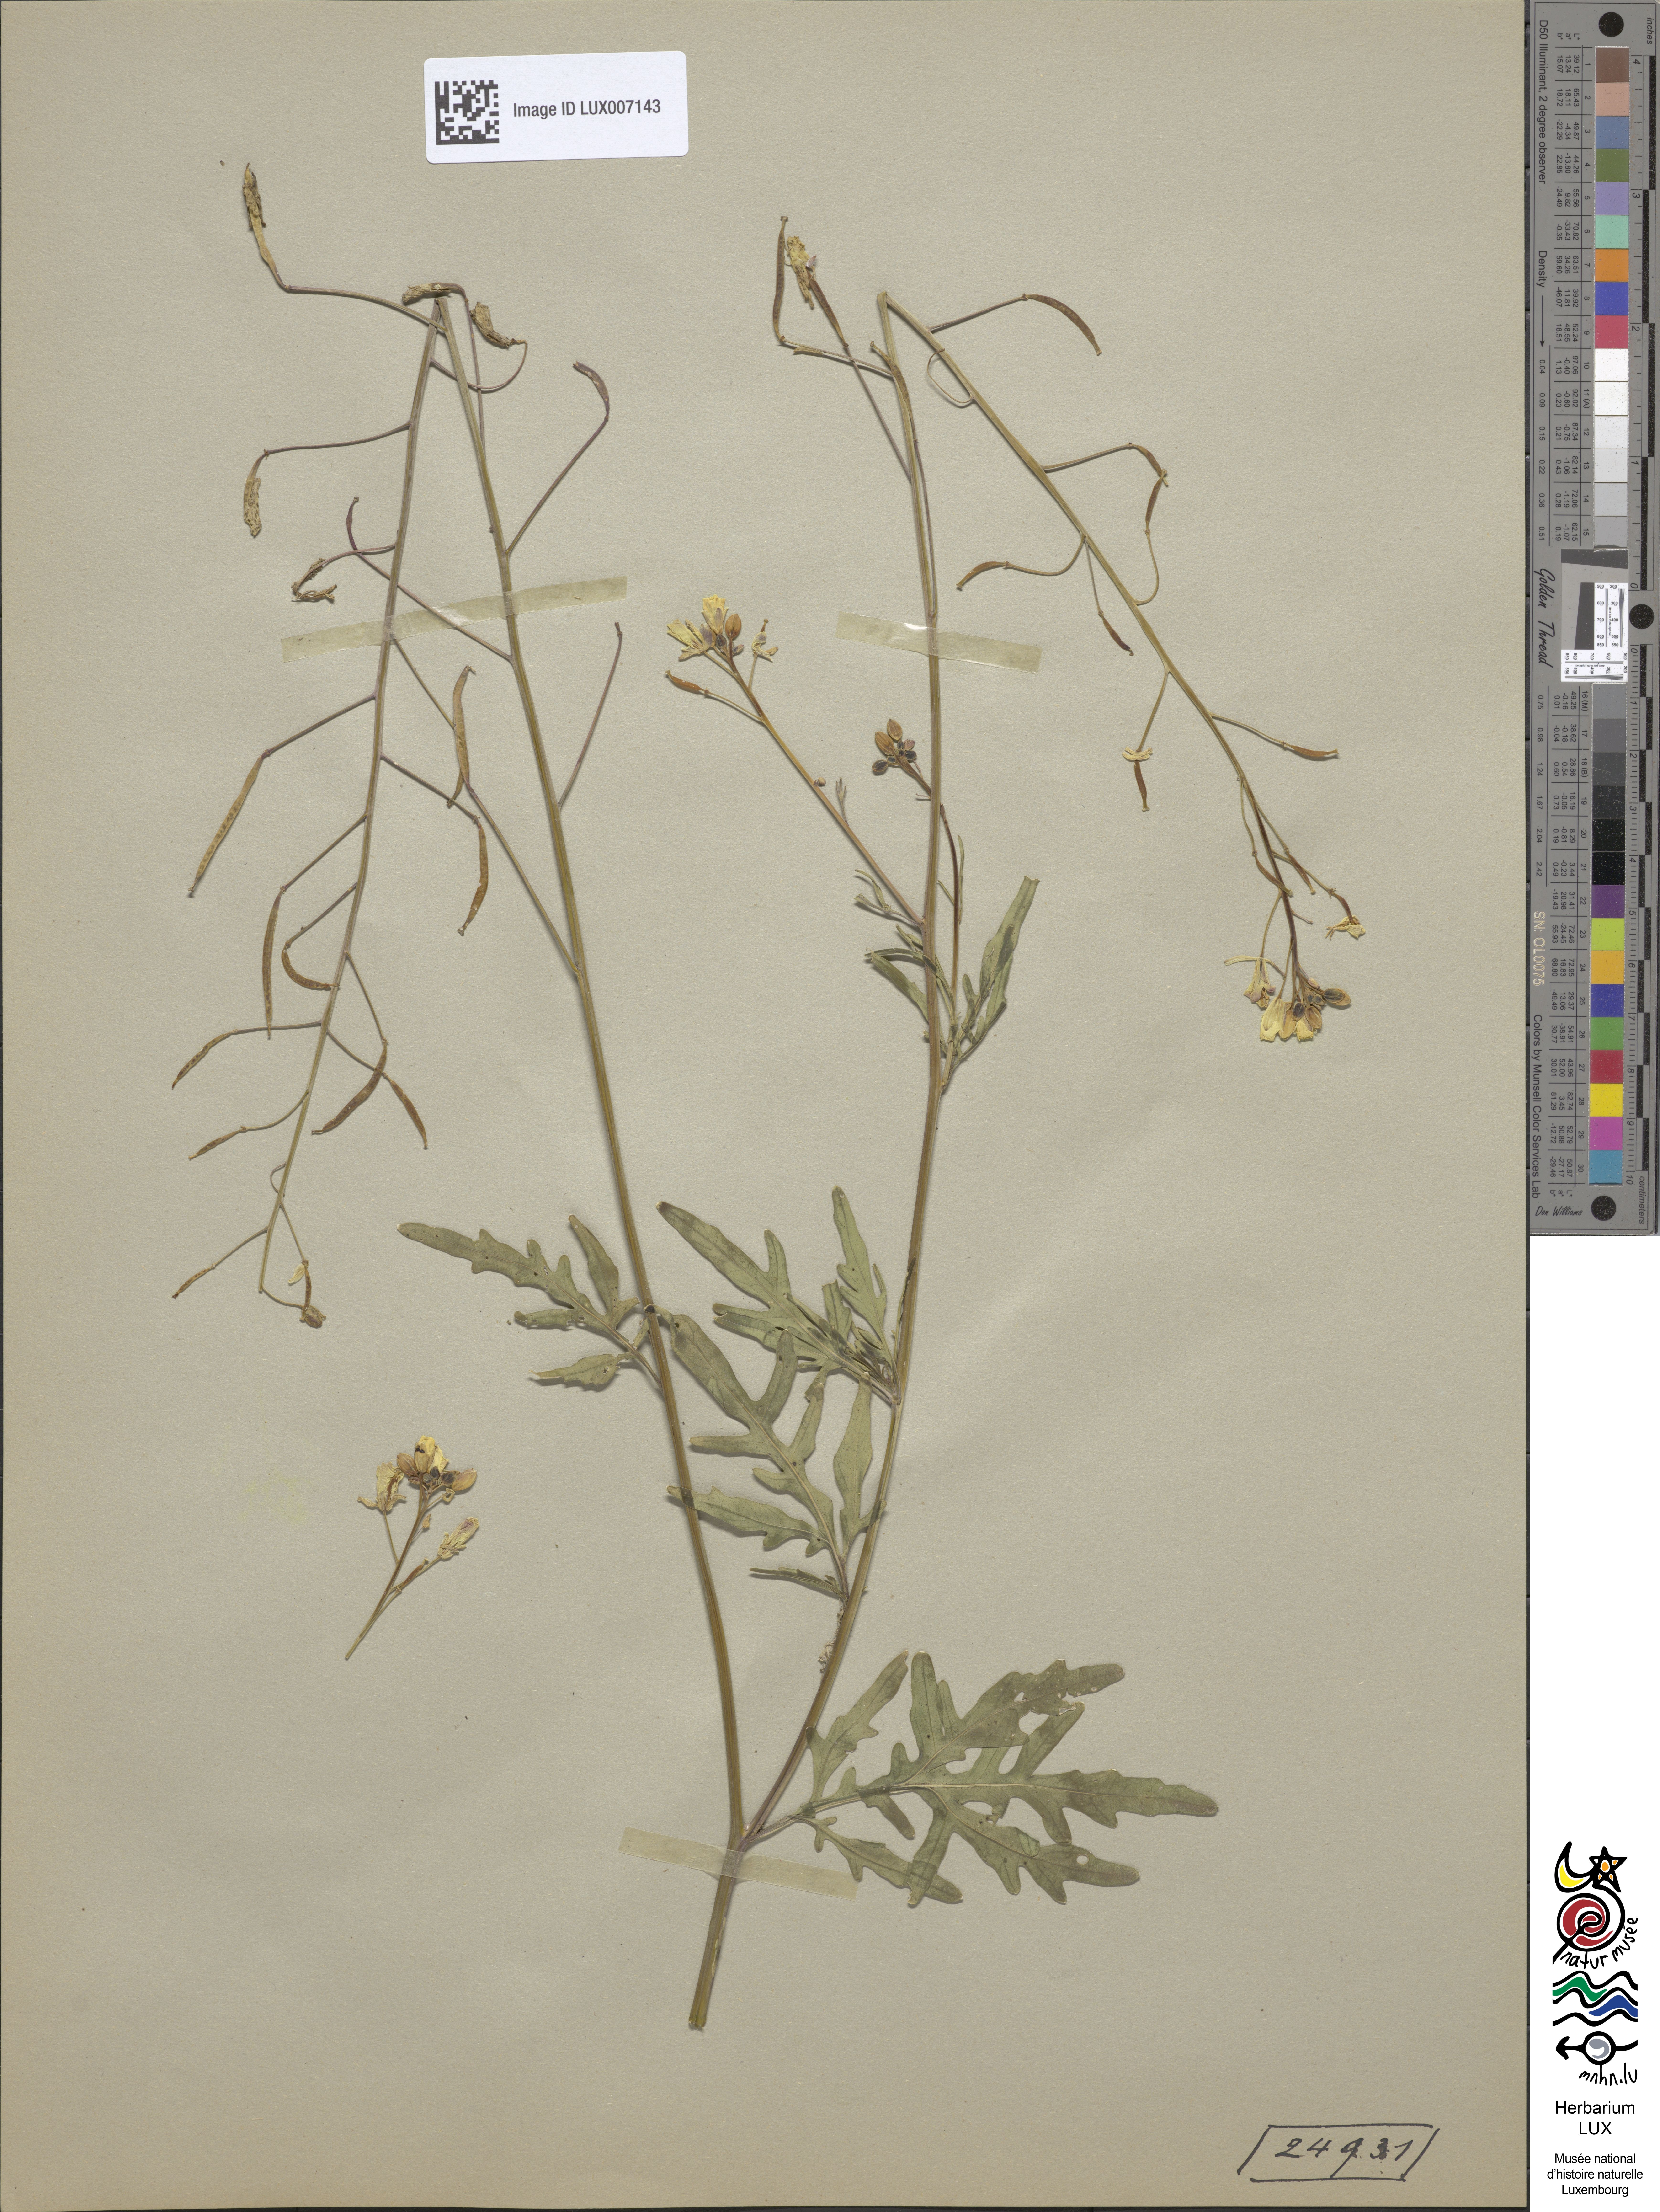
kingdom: Plantae
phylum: Tracheophyta
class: Magnoliopsida
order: Brassicales
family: Brassicaceae
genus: Diplotaxis
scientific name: Diplotaxis tenuifolia
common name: Perennial wall-rocket
